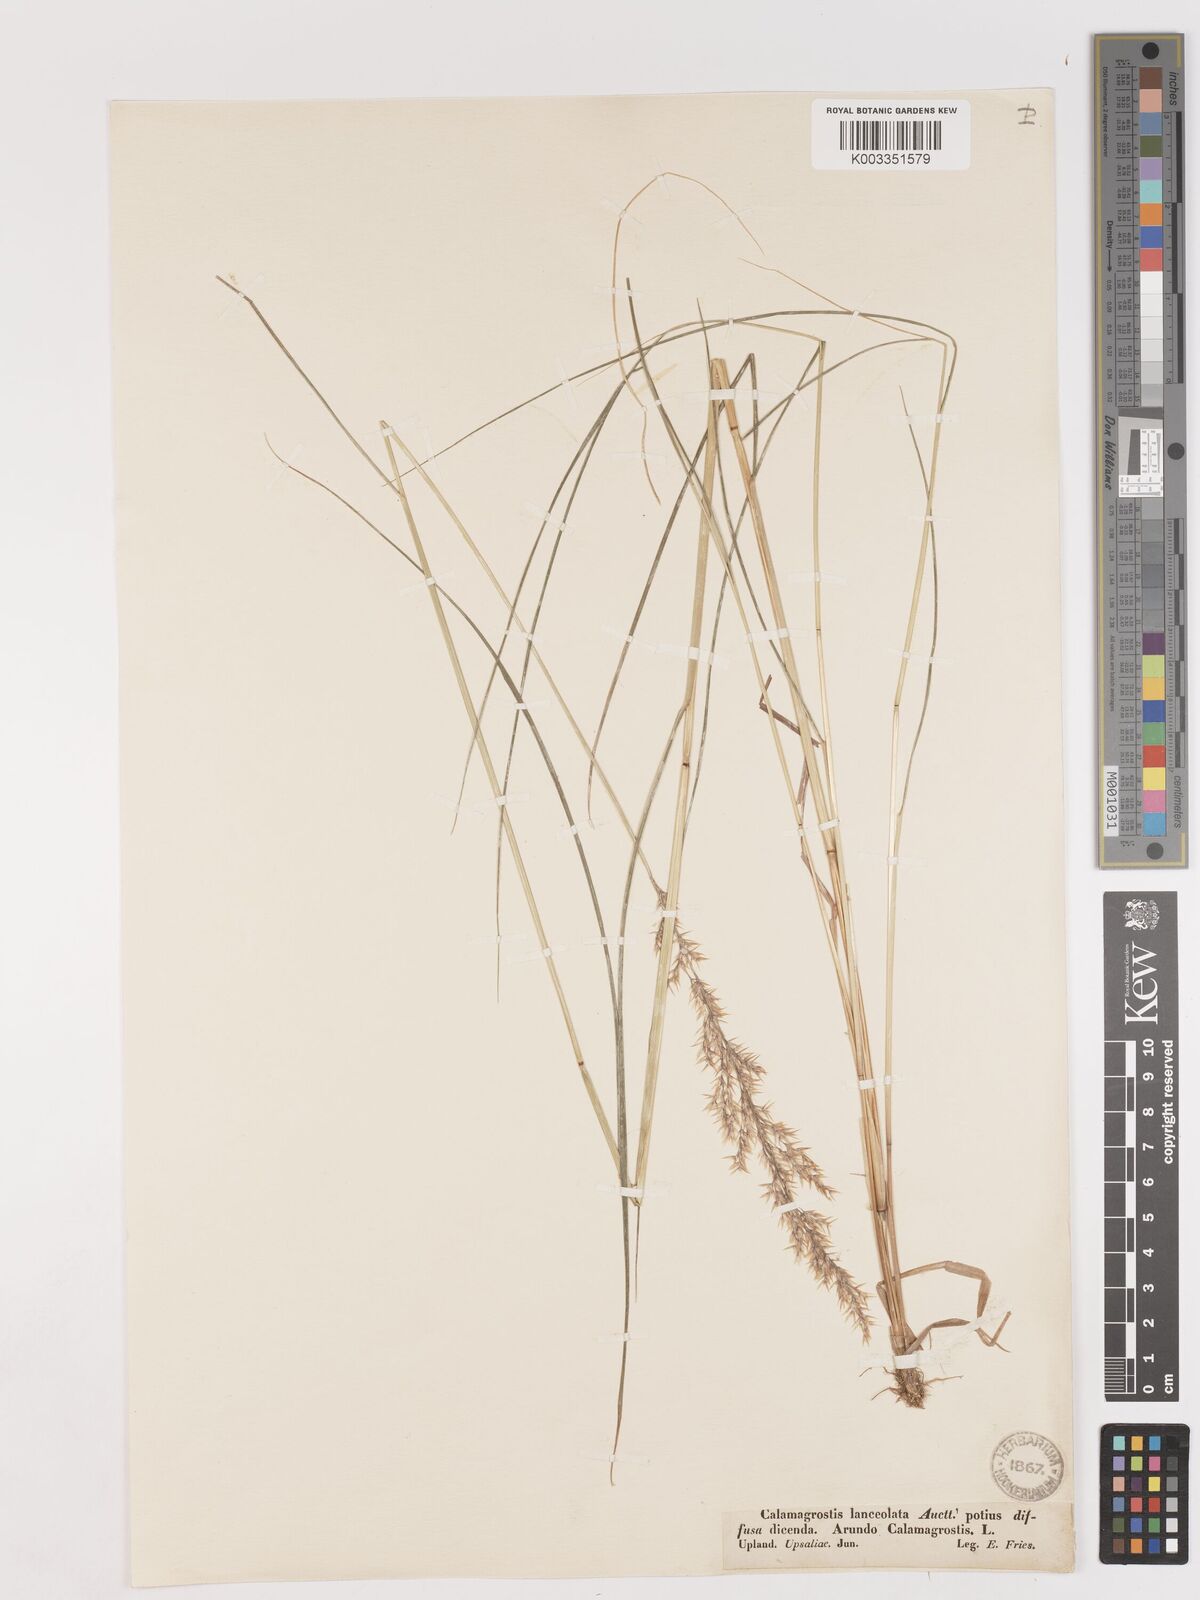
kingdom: Plantae
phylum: Tracheophyta
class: Liliopsida
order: Poales
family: Poaceae
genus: Calamagrostis
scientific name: Calamagrostis canescens
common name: Purple small-reed
